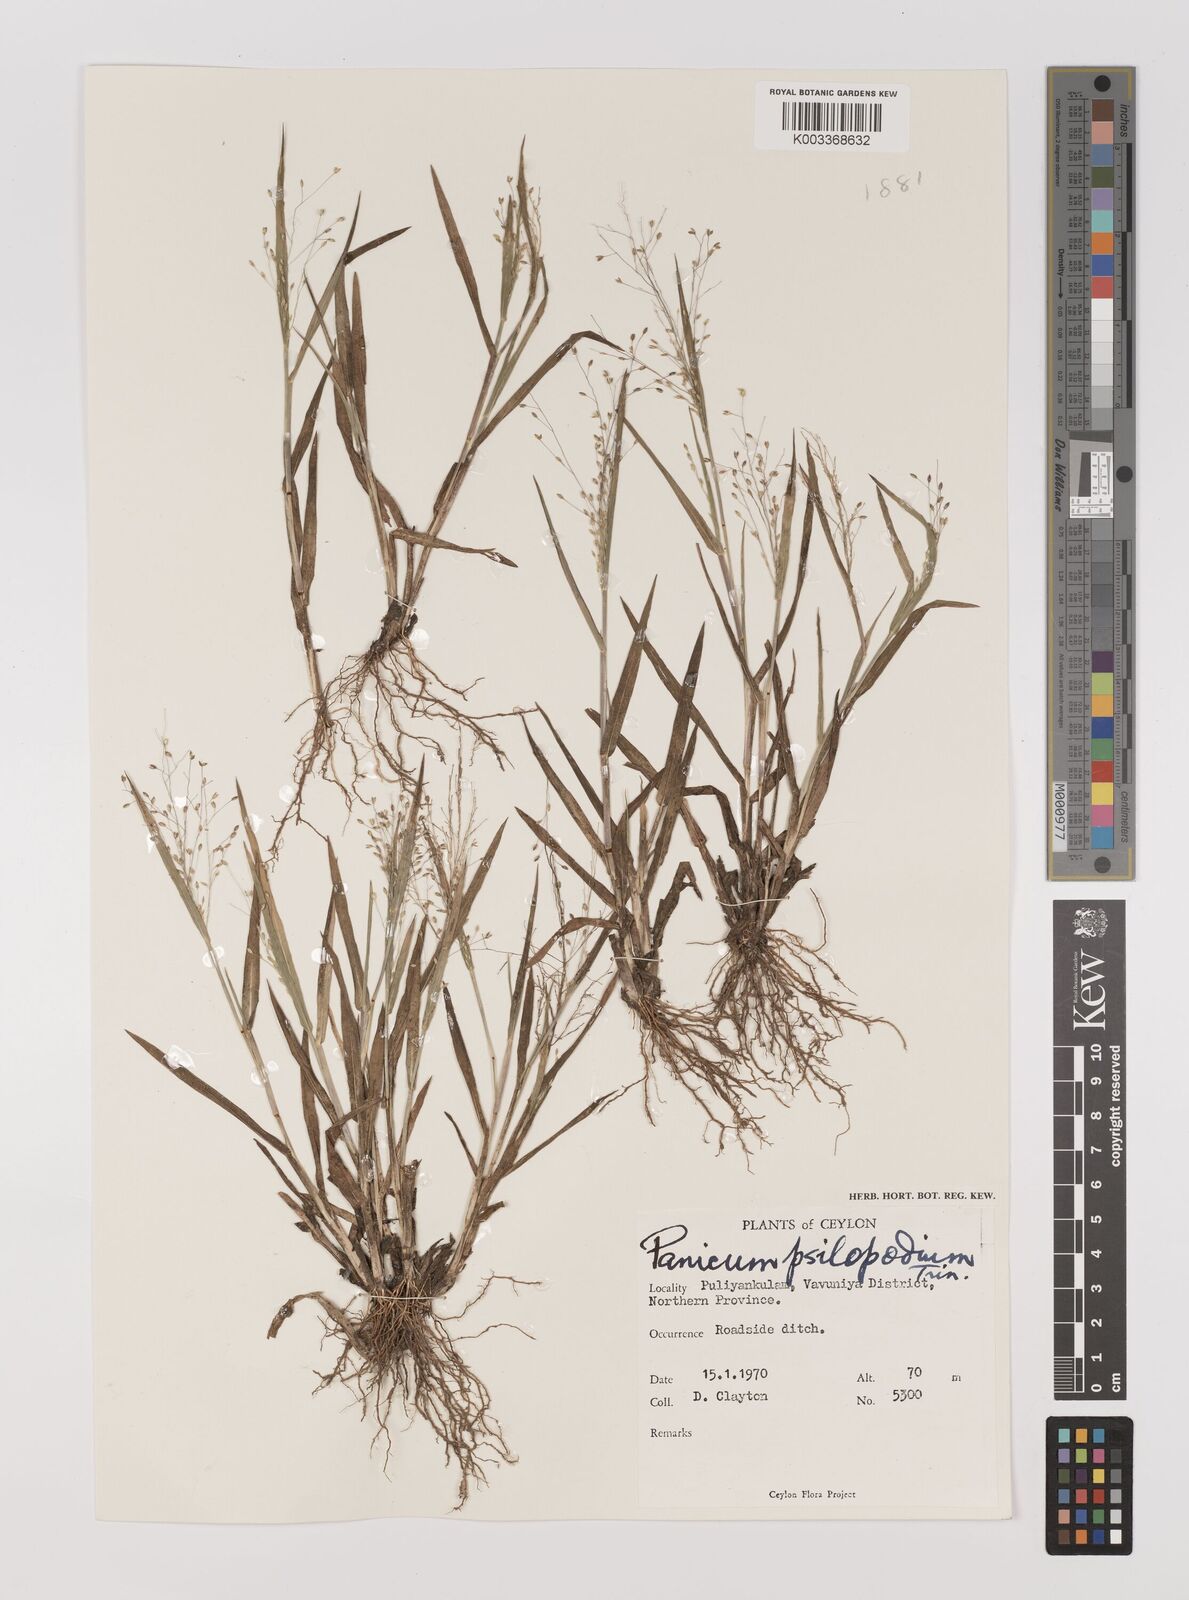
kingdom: Plantae
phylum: Tracheophyta
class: Liliopsida
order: Poales
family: Poaceae
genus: Panicum
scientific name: Panicum sumatrense
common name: Little millet
